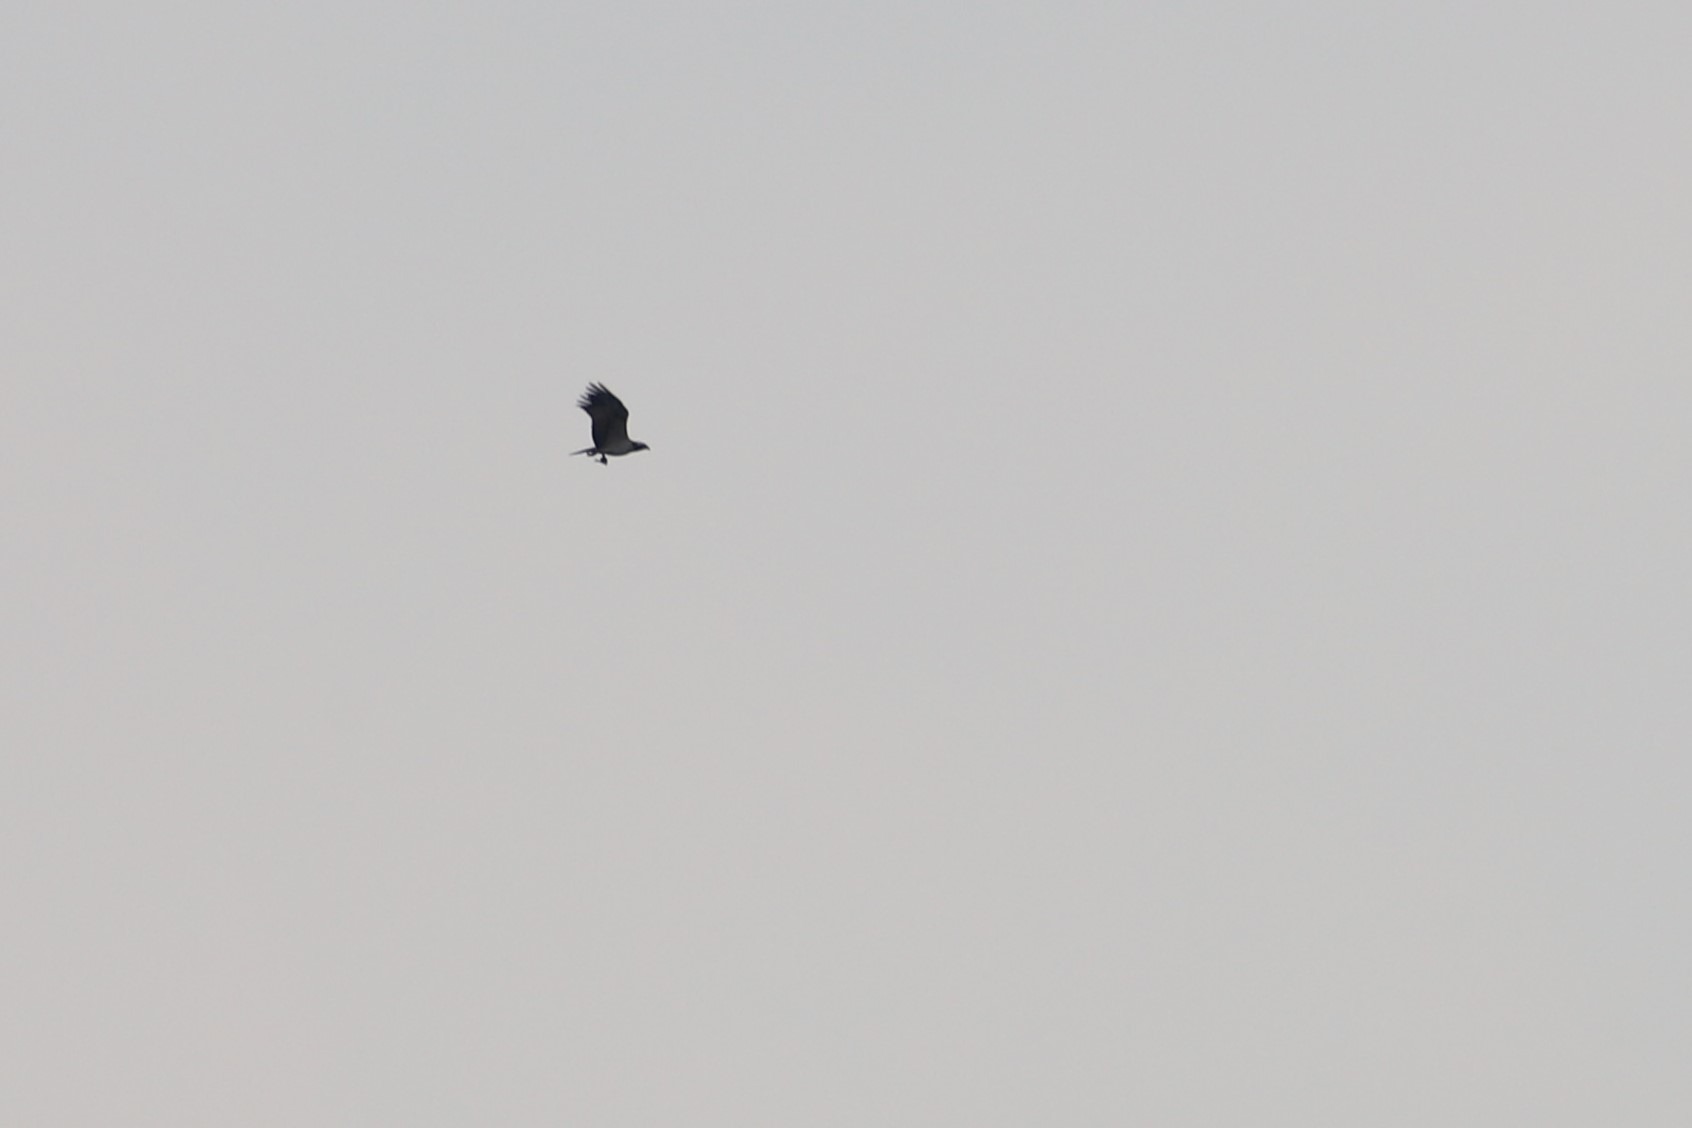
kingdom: Animalia
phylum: Chordata
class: Aves
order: Accipitriformes
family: Pandionidae
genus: Pandion
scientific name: Pandion haliaetus
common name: Fiskeørn
